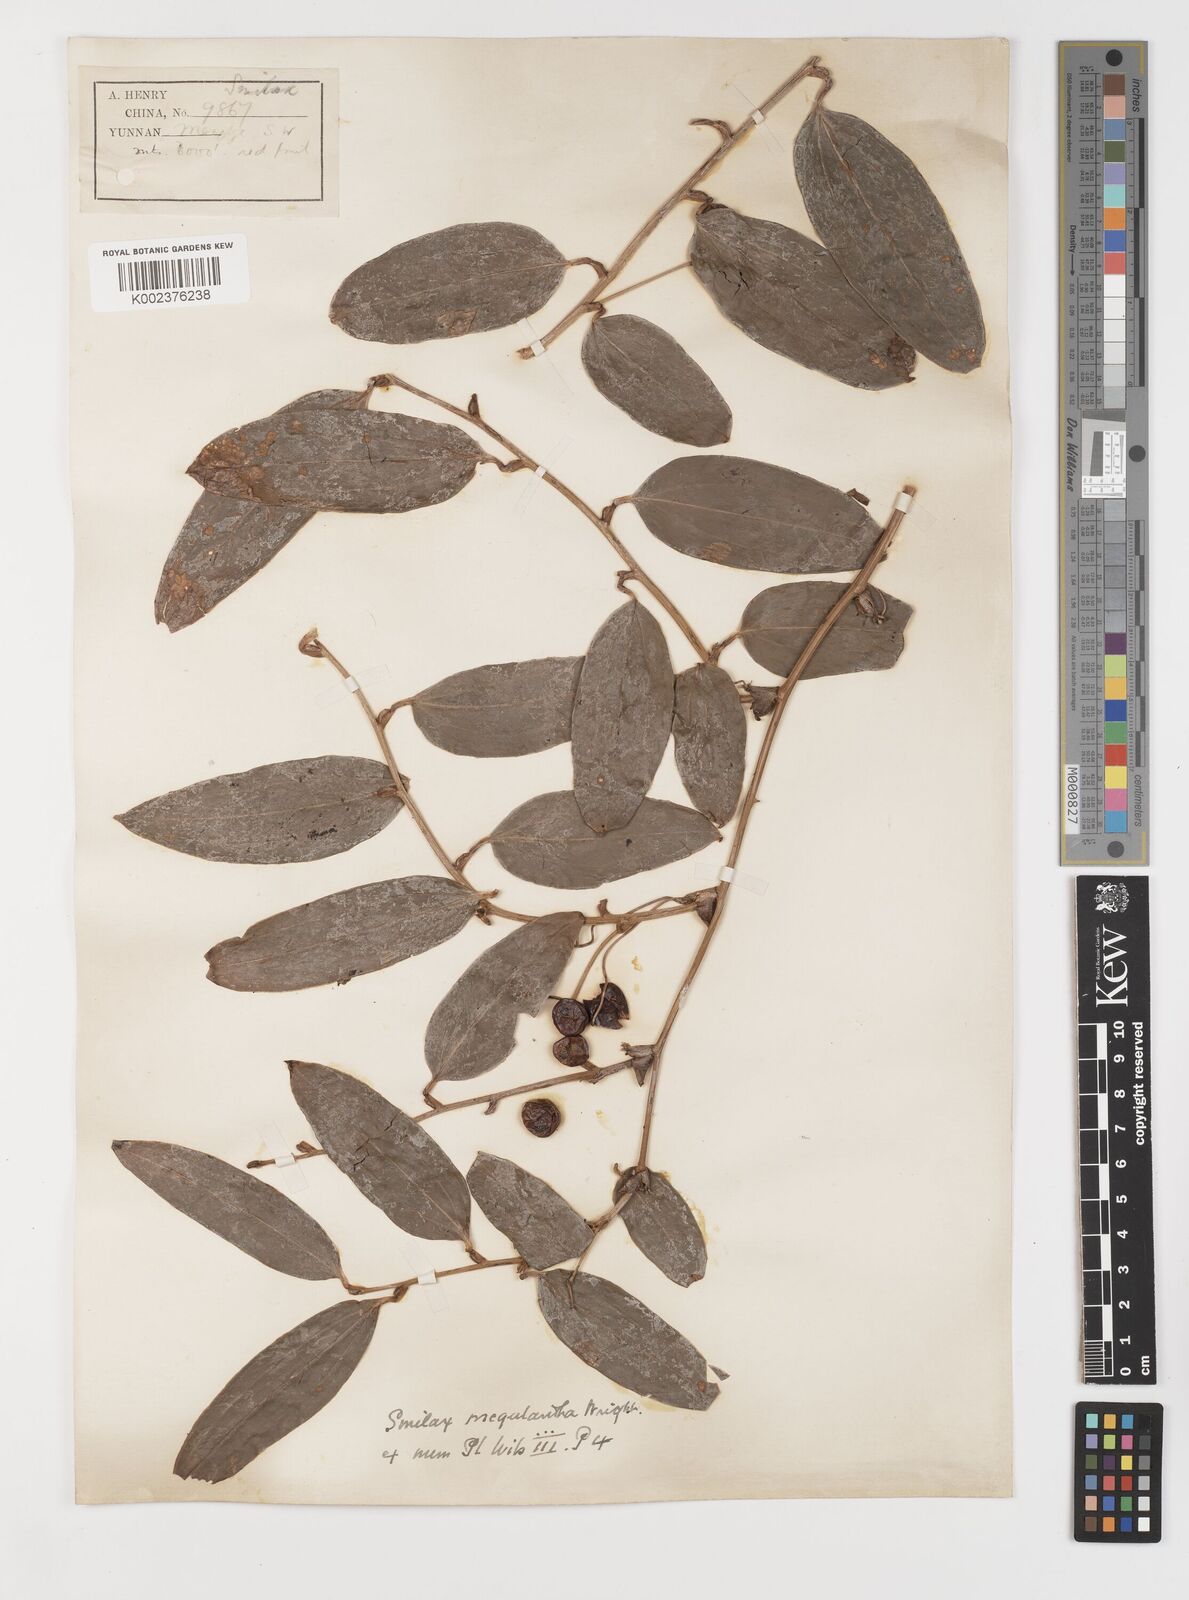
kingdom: Plantae
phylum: Tracheophyta
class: Liliopsida
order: Liliales
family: Smilacaceae
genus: Smilax
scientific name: Smilax ferox
